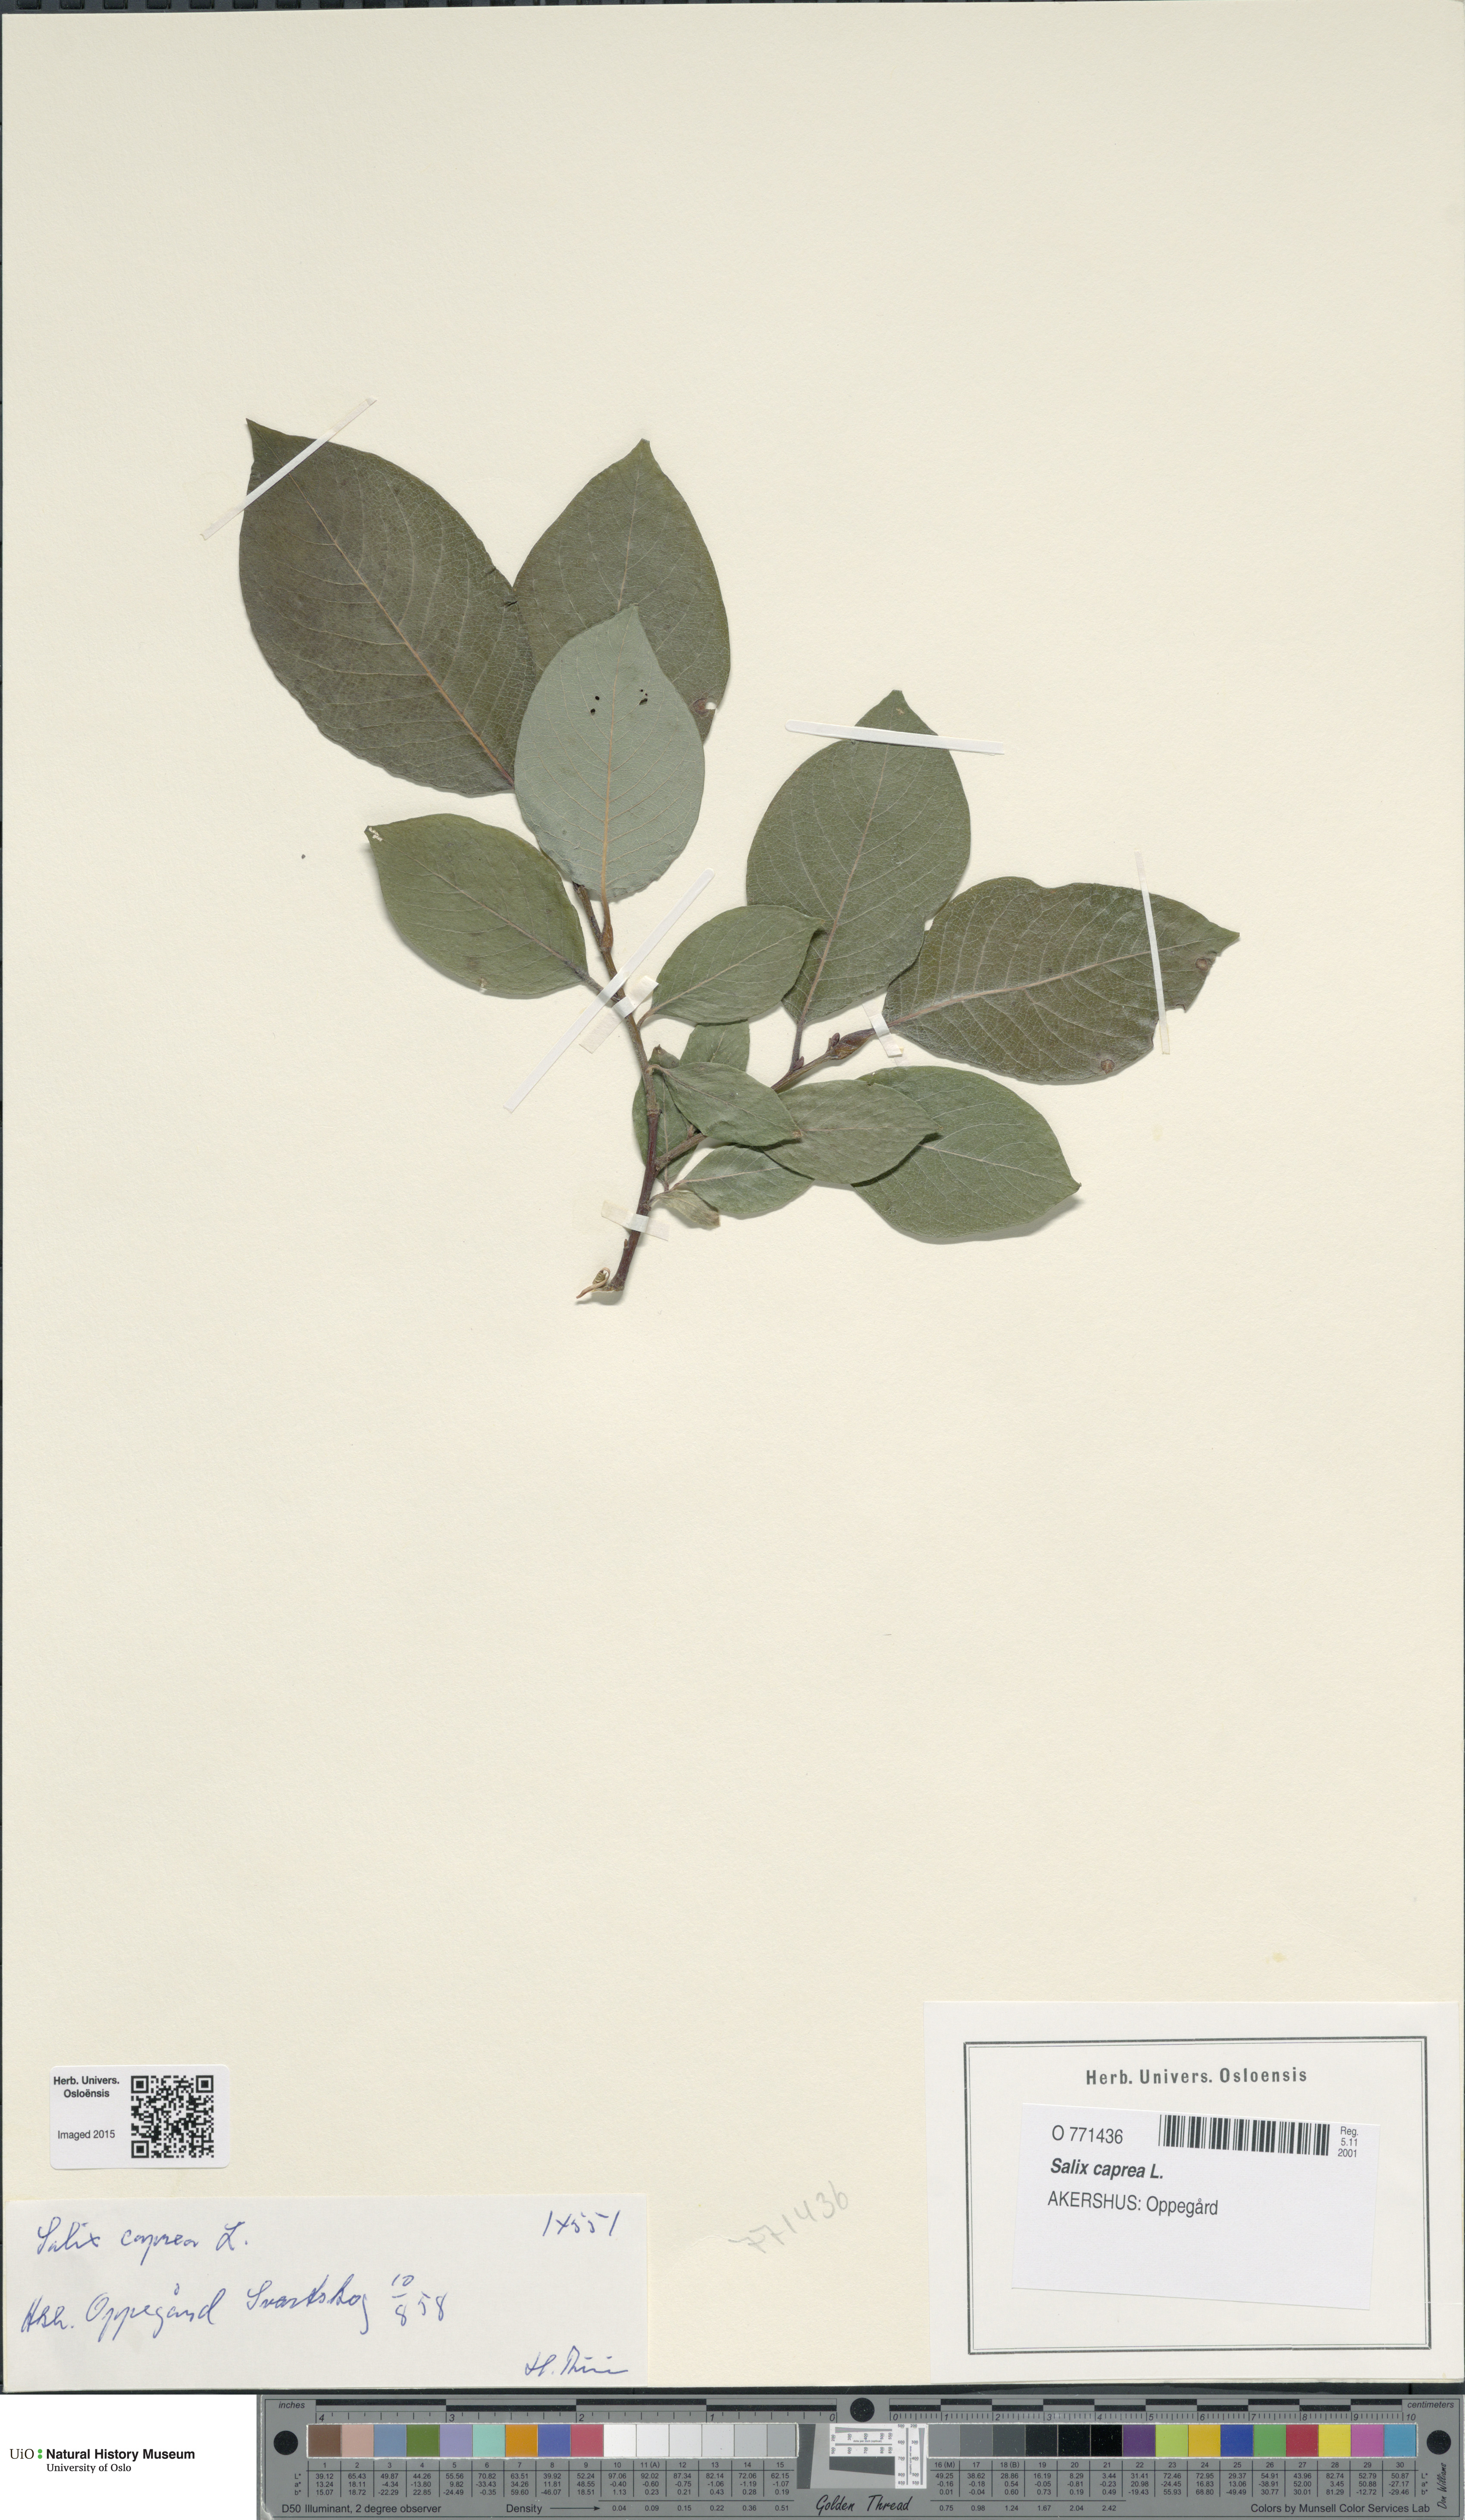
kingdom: Plantae
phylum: Tracheophyta
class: Magnoliopsida
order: Malpighiales
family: Salicaceae
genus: Salix
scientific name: Salix caprea
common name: Goat willow
